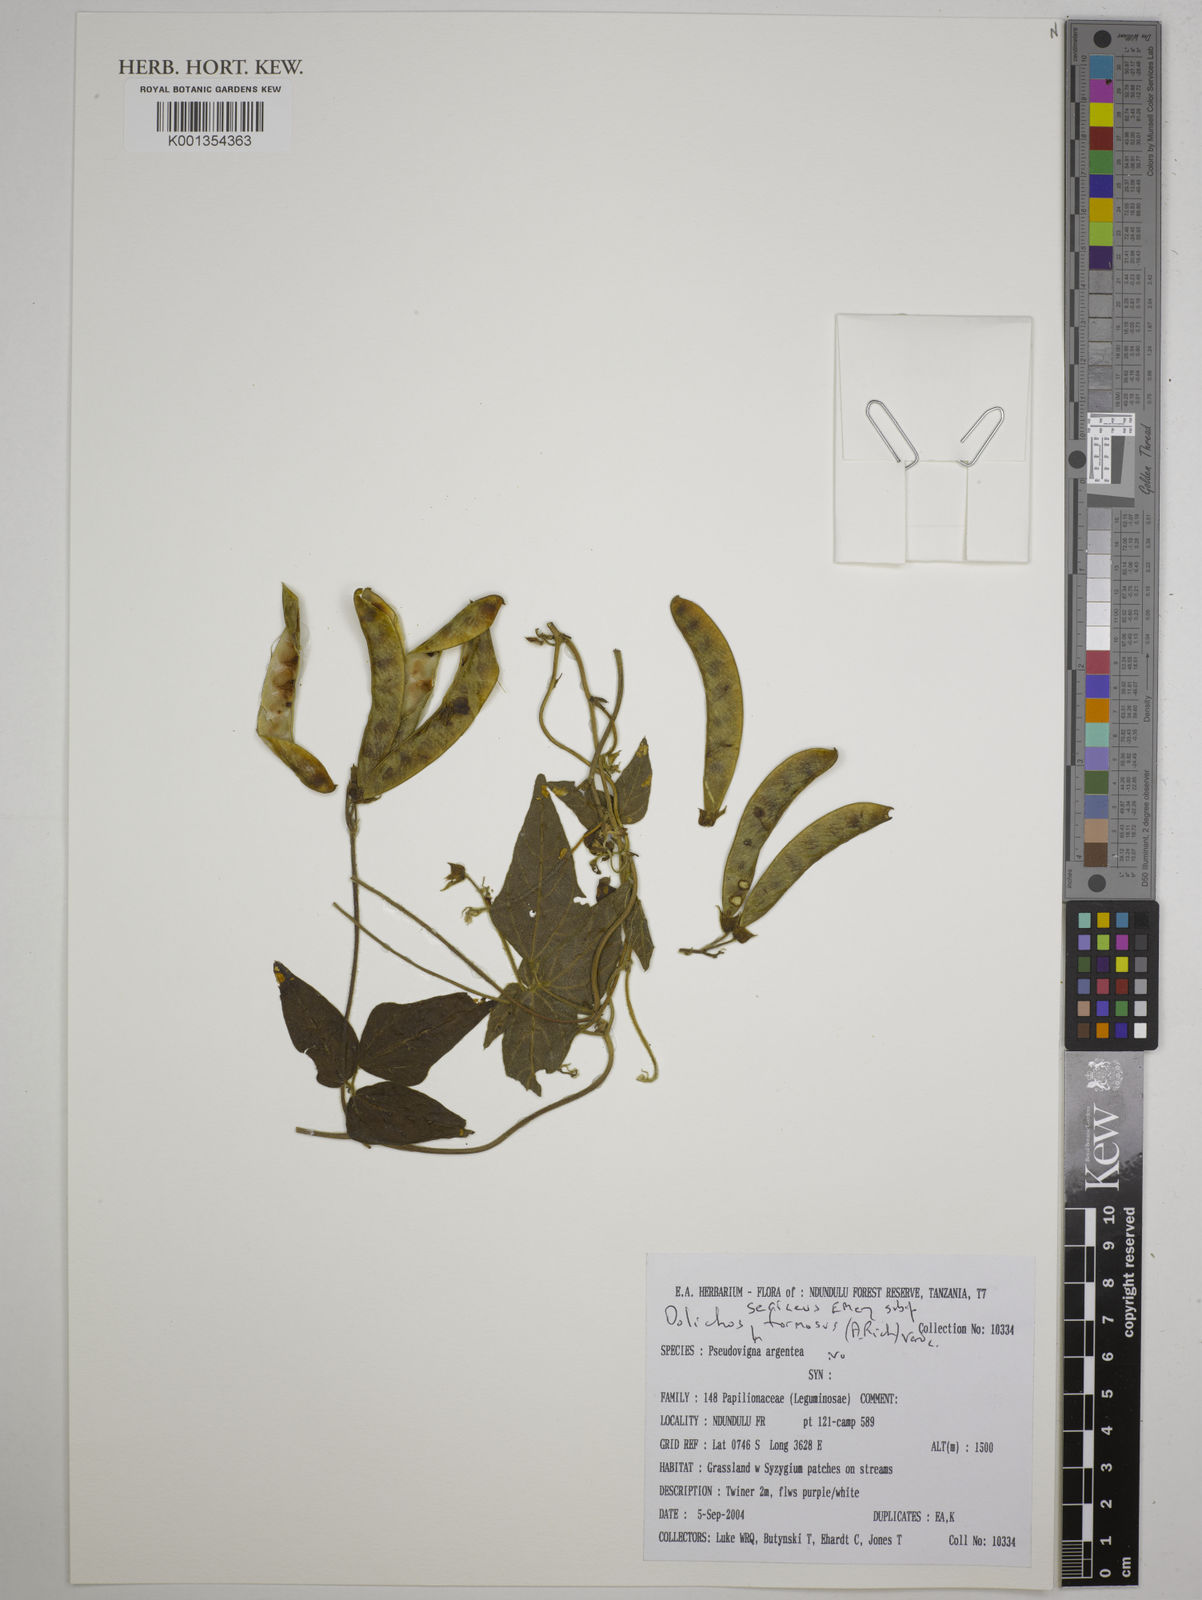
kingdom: Plantae
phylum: Tracheophyta
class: Magnoliopsida
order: Fabales
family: Fabaceae
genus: Dolichos
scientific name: Dolichos
